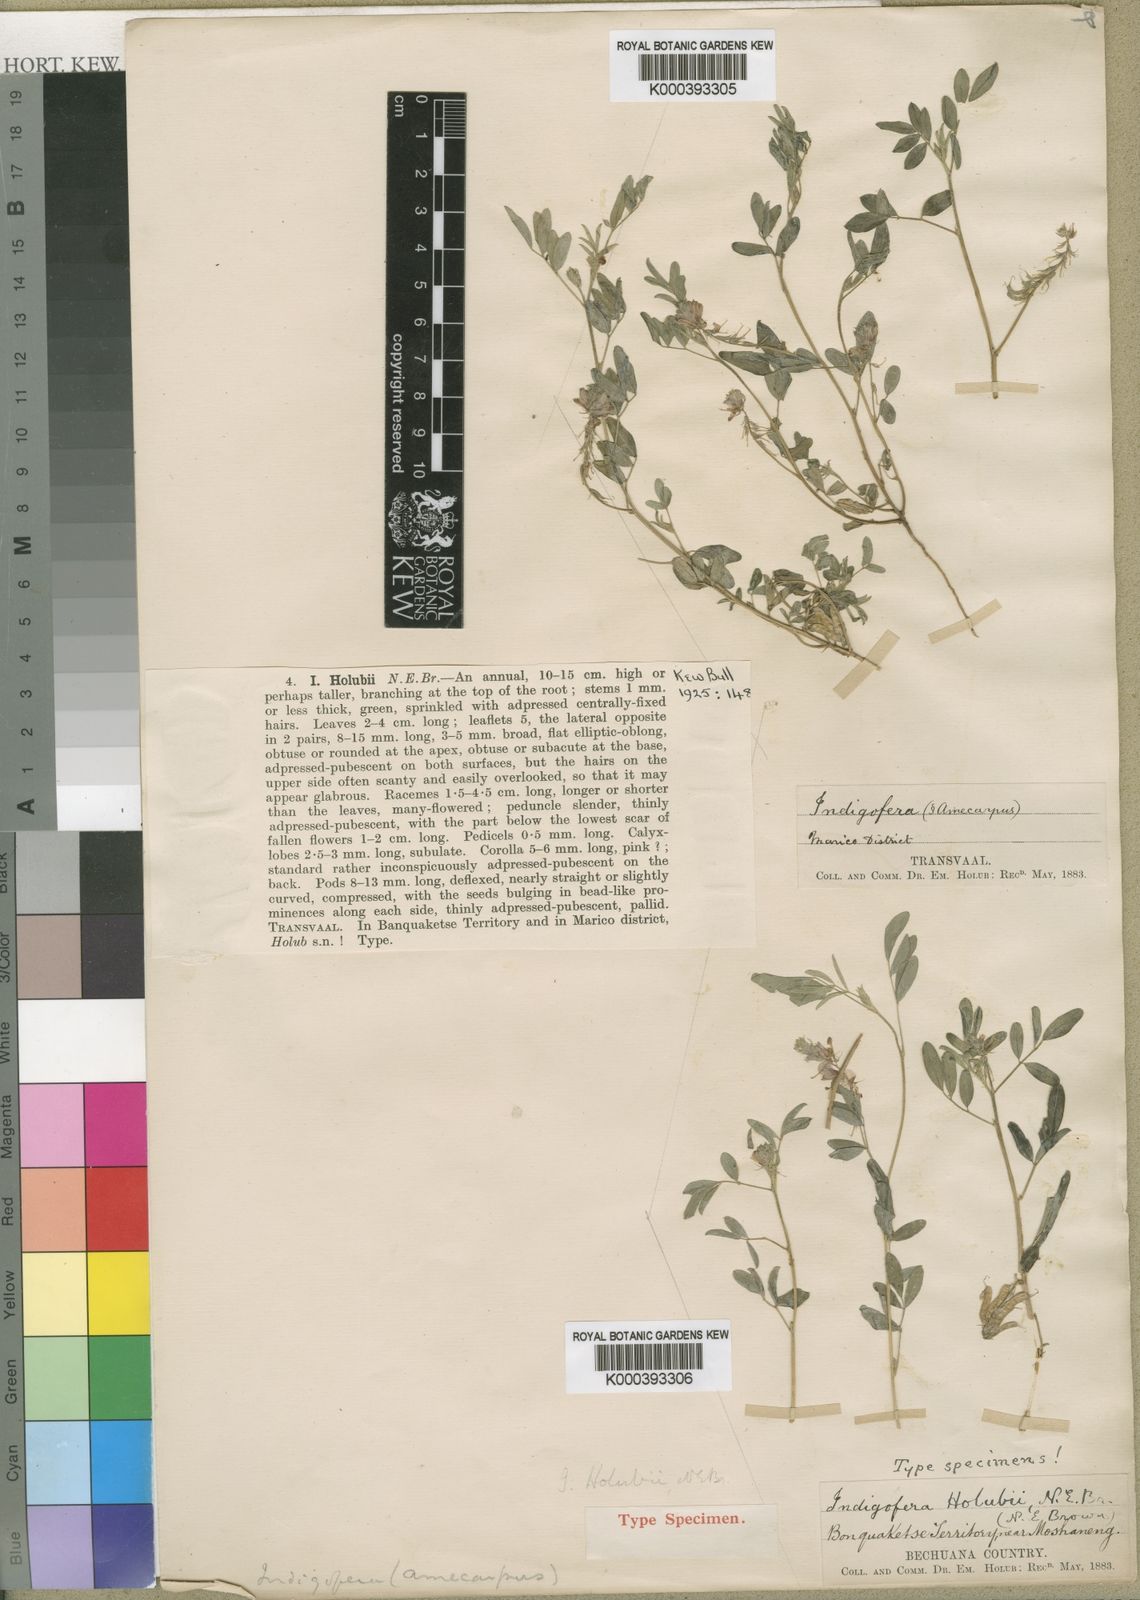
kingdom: Plantae
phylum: Tracheophyta
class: Magnoliopsida
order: Fabales
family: Fabaceae
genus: Indigofera
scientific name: Indigofera holubii
